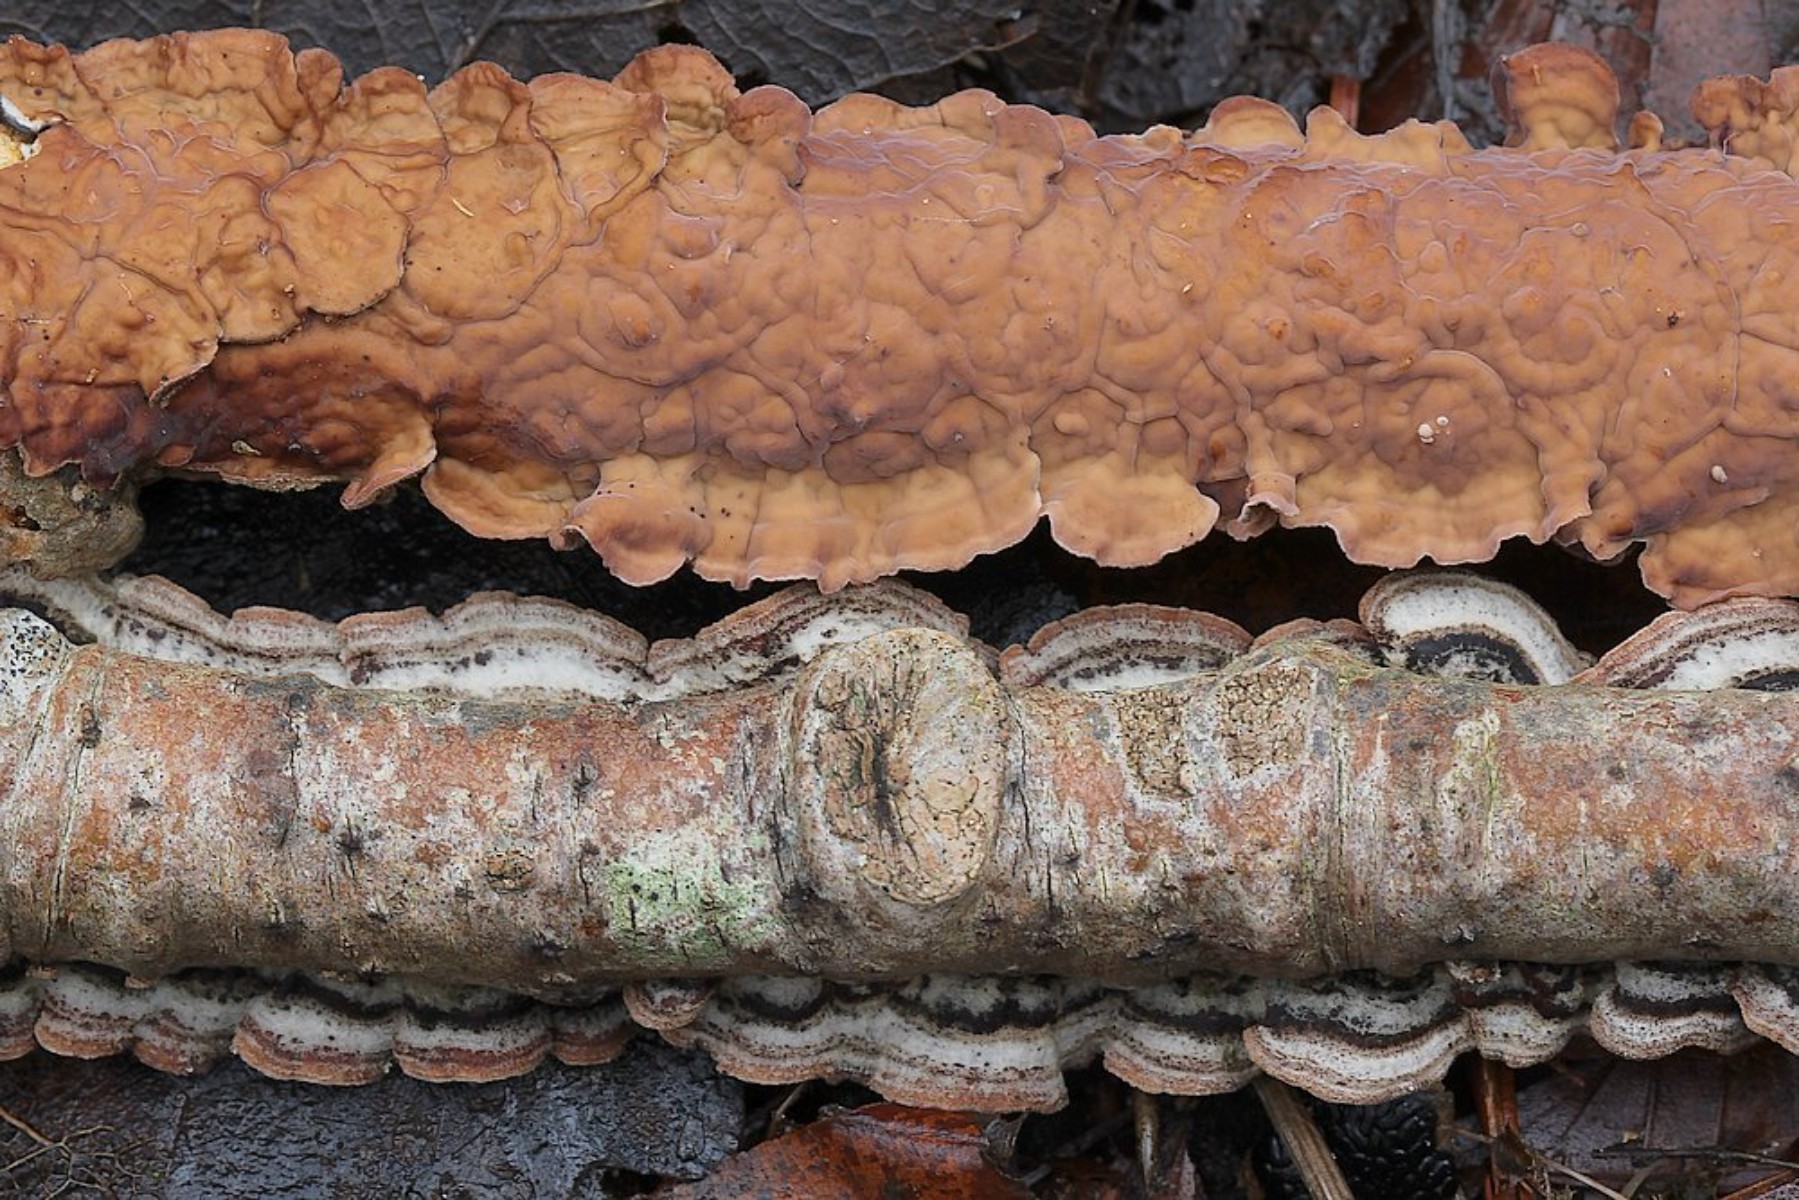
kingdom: Fungi
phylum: Basidiomycota
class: Agaricomycetes
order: Russulales
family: Stereaceae
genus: Stereum
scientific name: Stereum hirsutum
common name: håret lædersvamp
